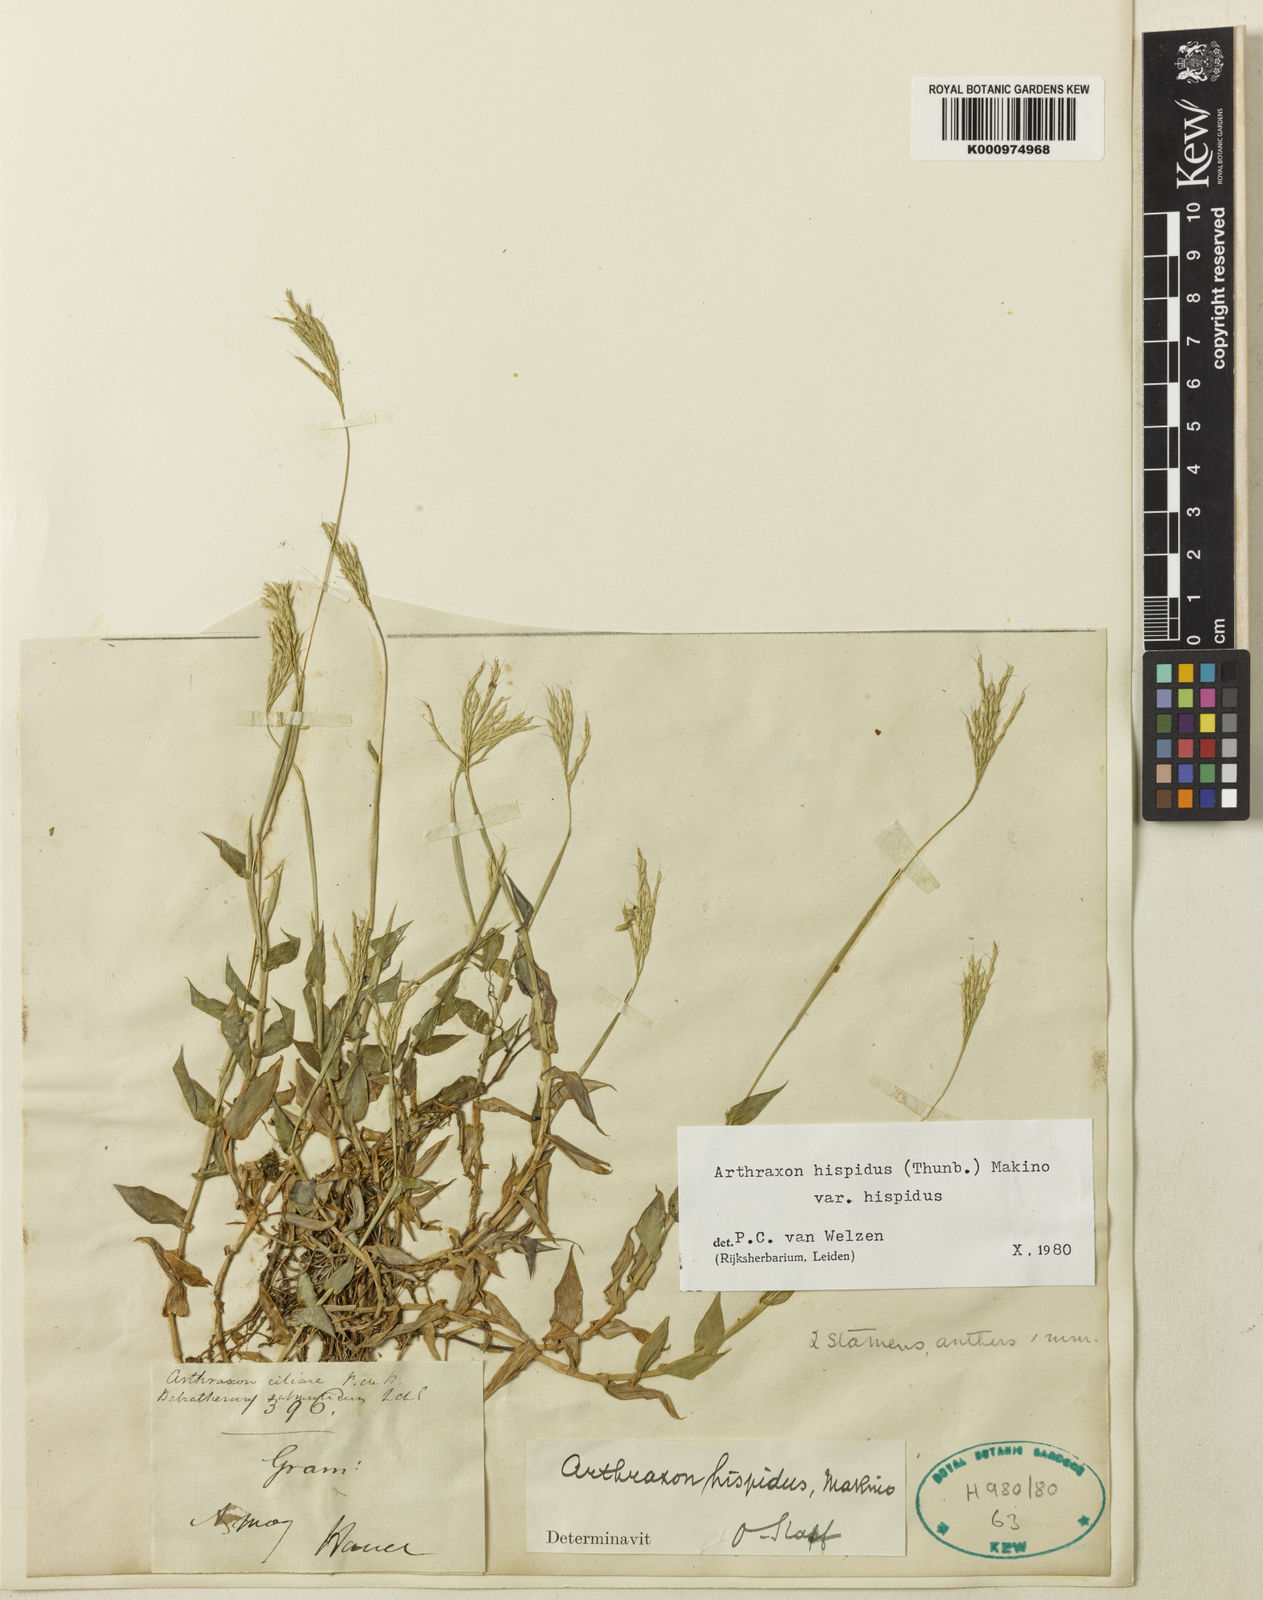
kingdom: Plantae
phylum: Tracheophyta
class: Liliopsida
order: Poales
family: Poaceae
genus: Arthraxon
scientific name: Arthraxon hispidus
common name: Small carpgrass
